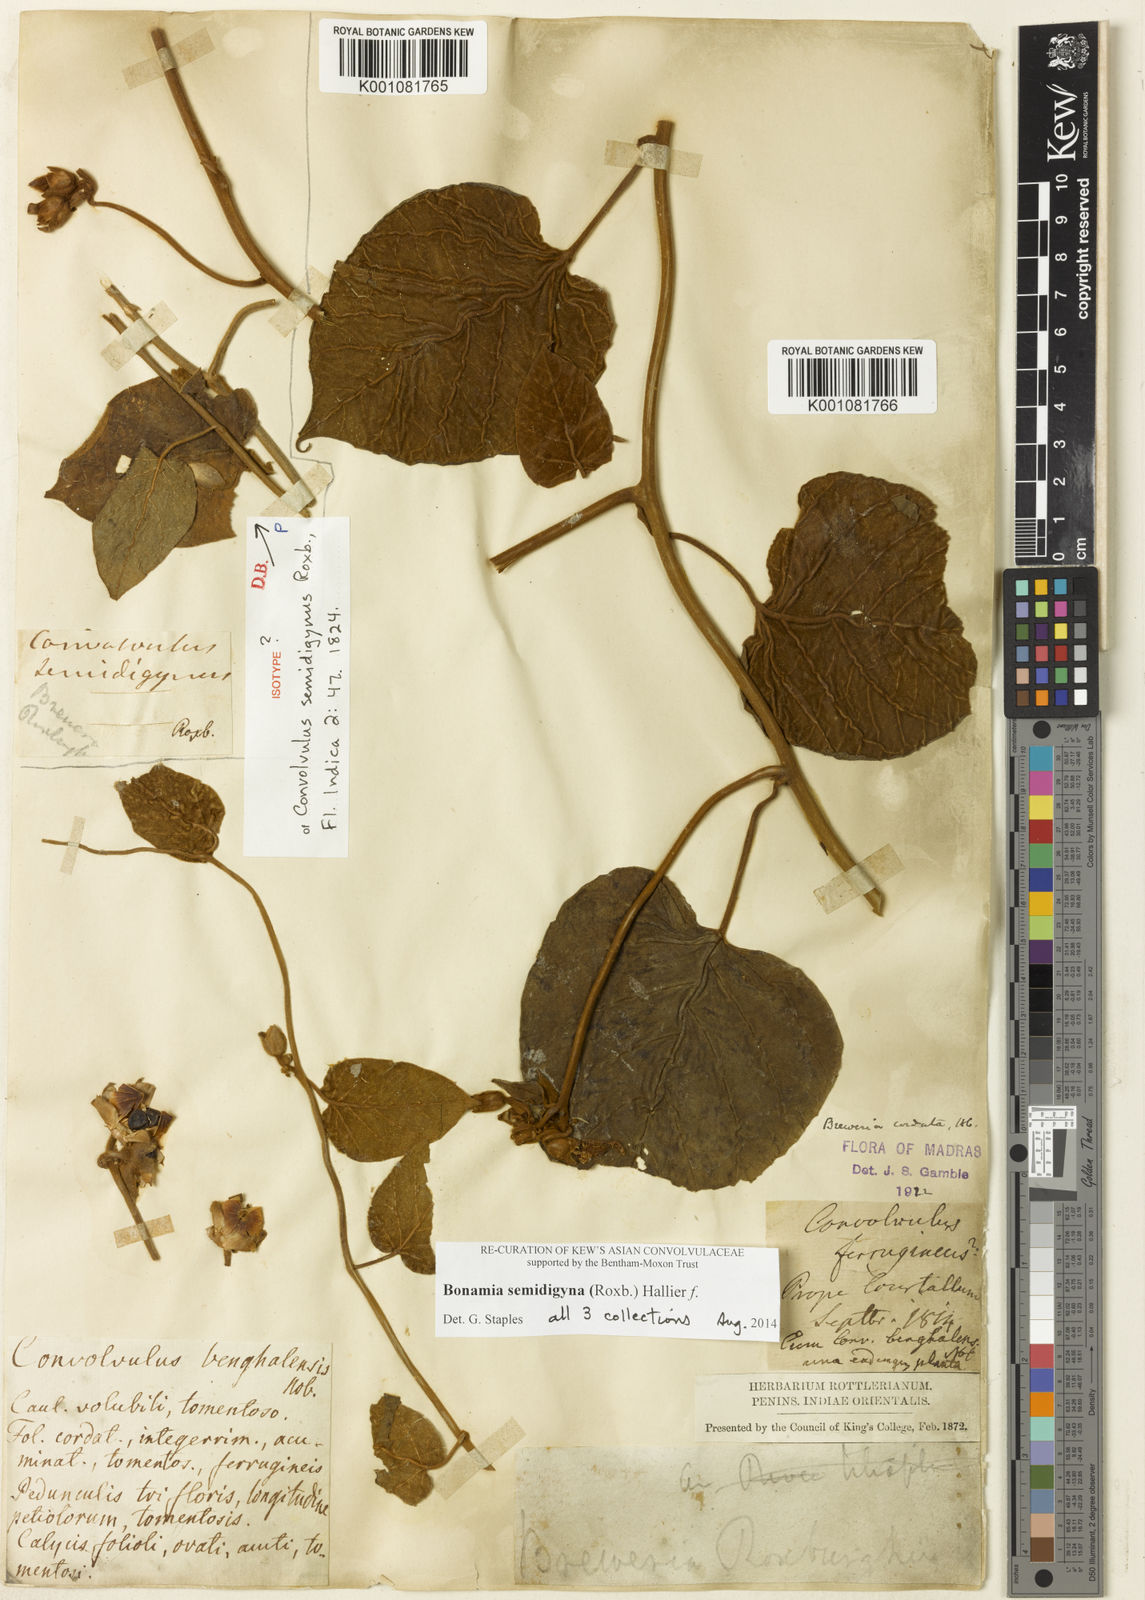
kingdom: Plantae
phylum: Tracheophyta
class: Magnoliopsida
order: Solanales
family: Convolvulaceae
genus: Bonamia
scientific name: Bonamia semidigyna
